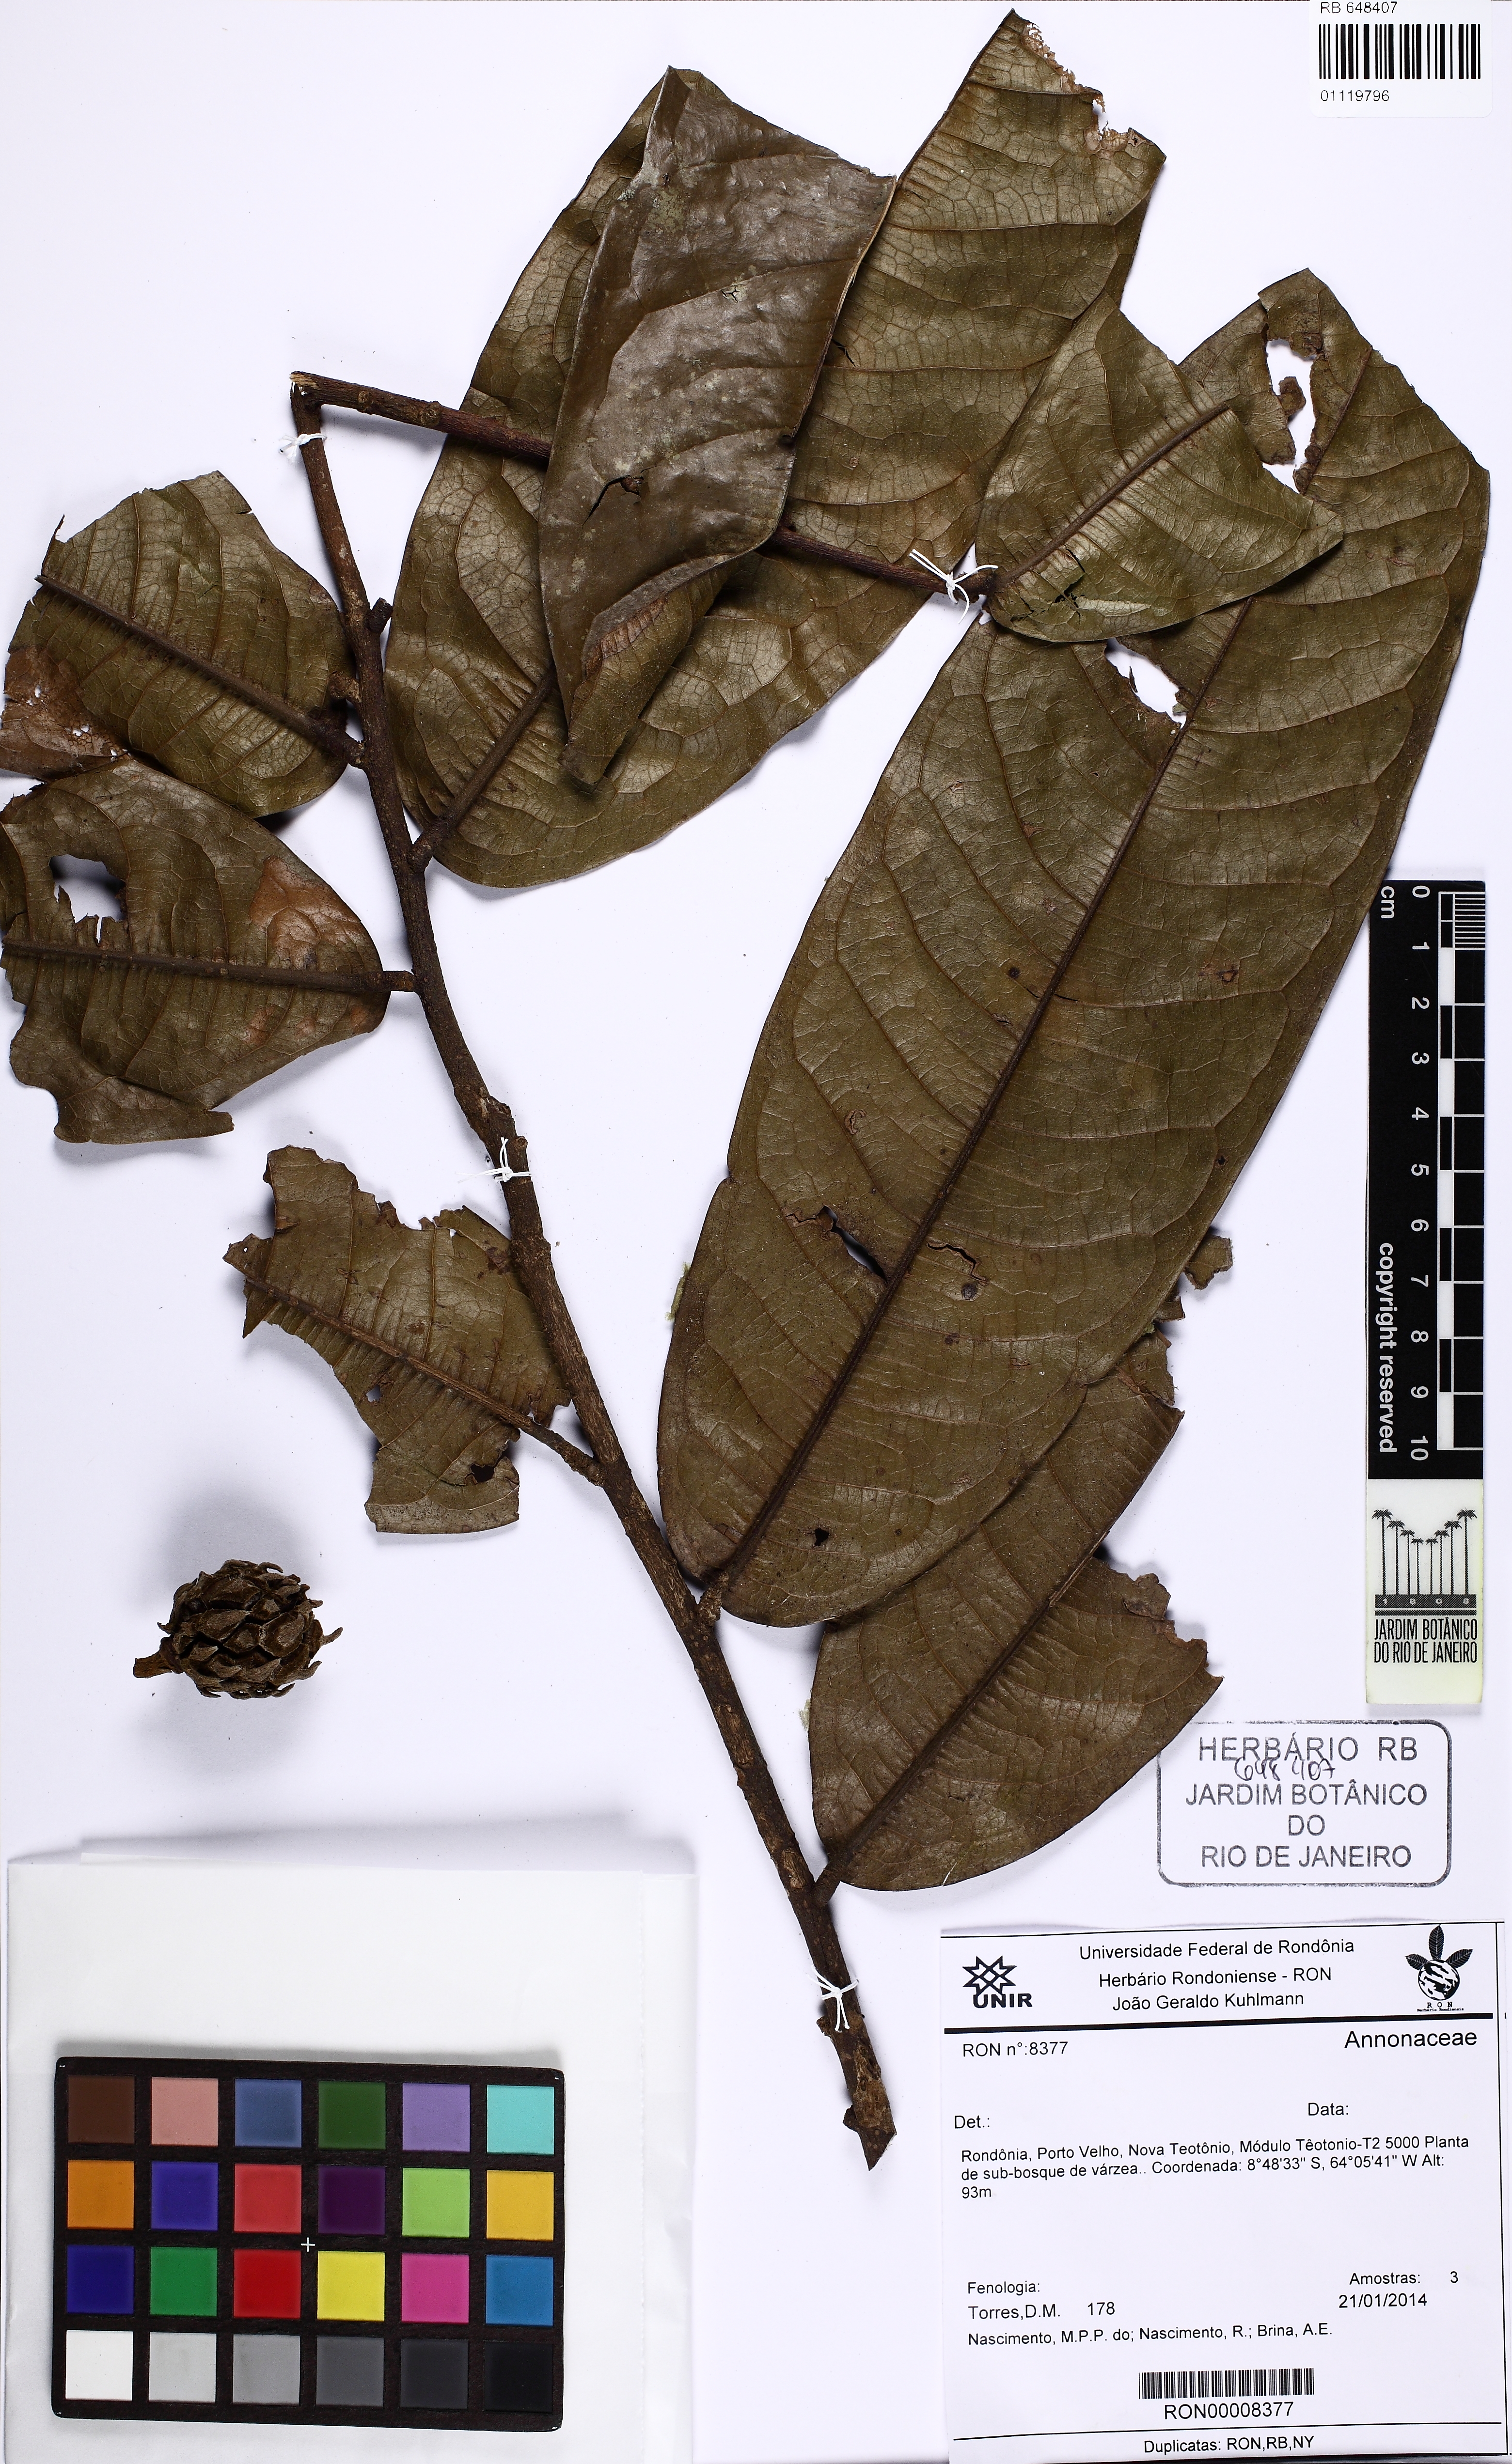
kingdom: Plantae
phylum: Tracheophyta
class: Magnoliopsida
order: Magnoliales
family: Annonaceae
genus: Duguetia
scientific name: Duguetia
